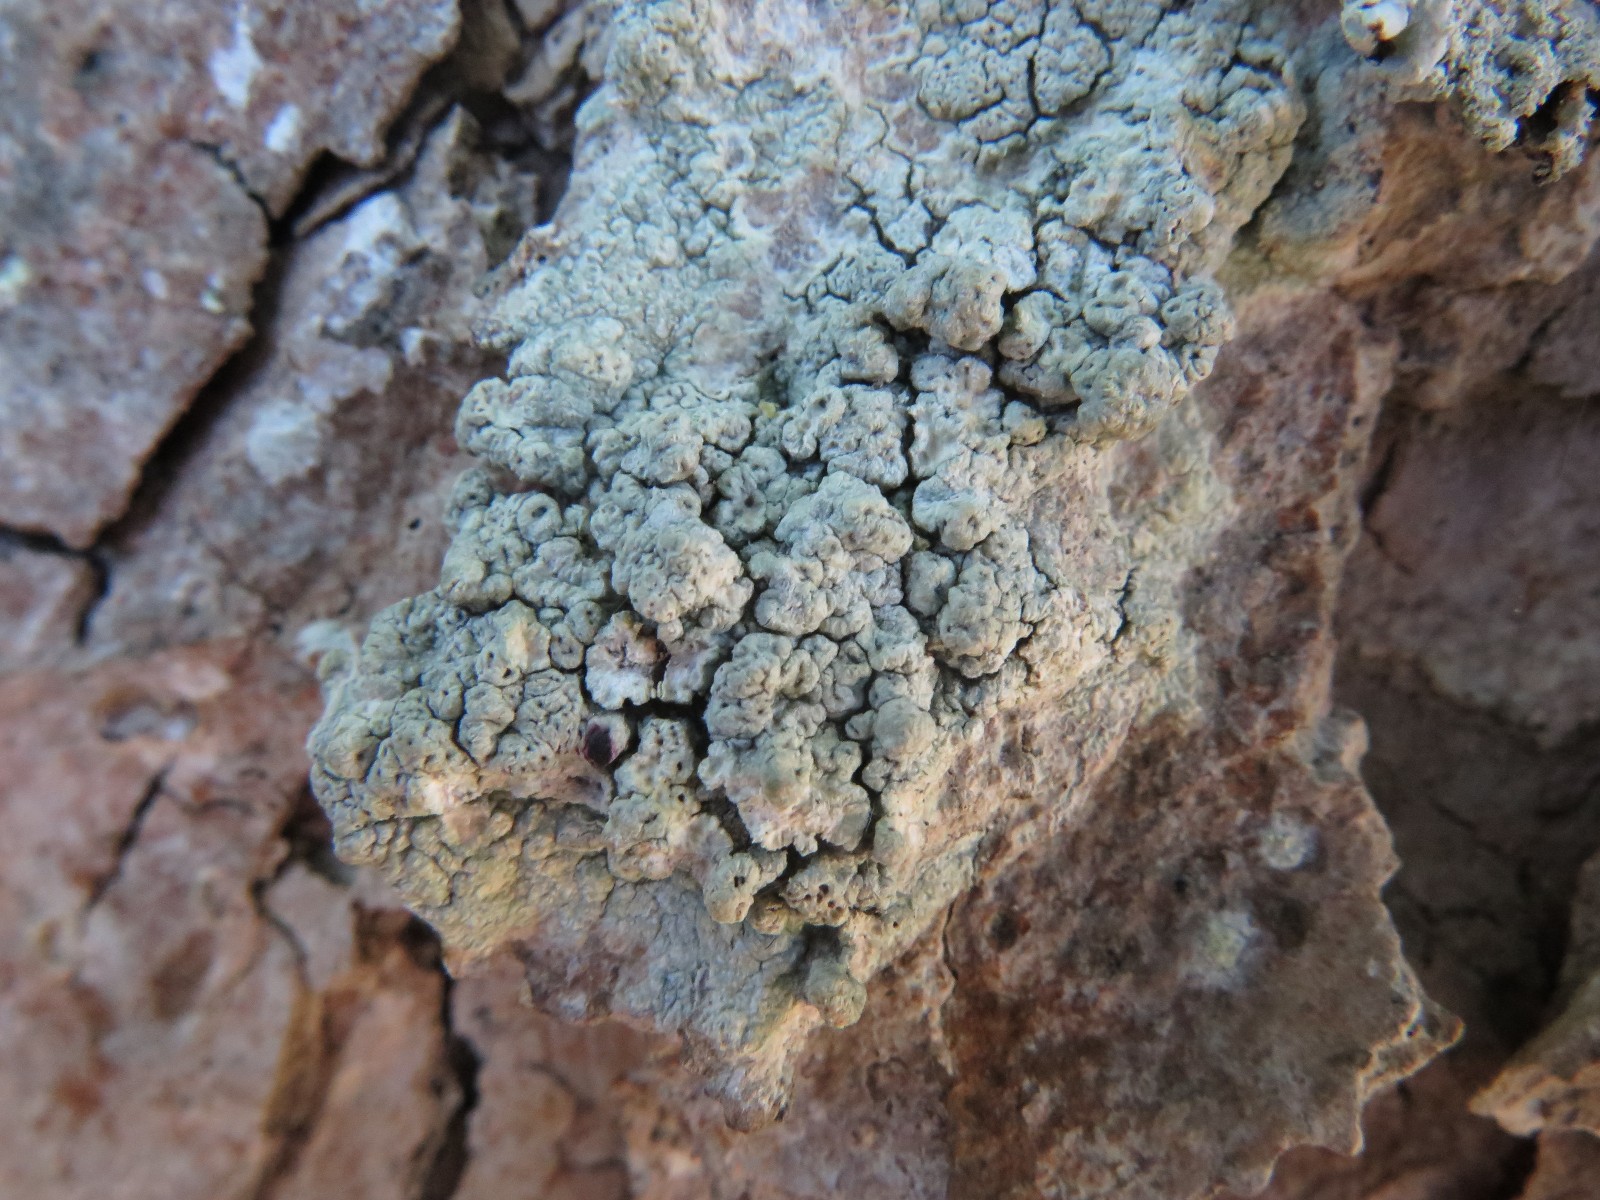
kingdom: Fungi
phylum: Ascomycota
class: Lecanoromycetes
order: Pertusariales
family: Pertusariaceae
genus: Pertusaria
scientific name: Pertusaria pertusa
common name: almindelig prikvortelav
